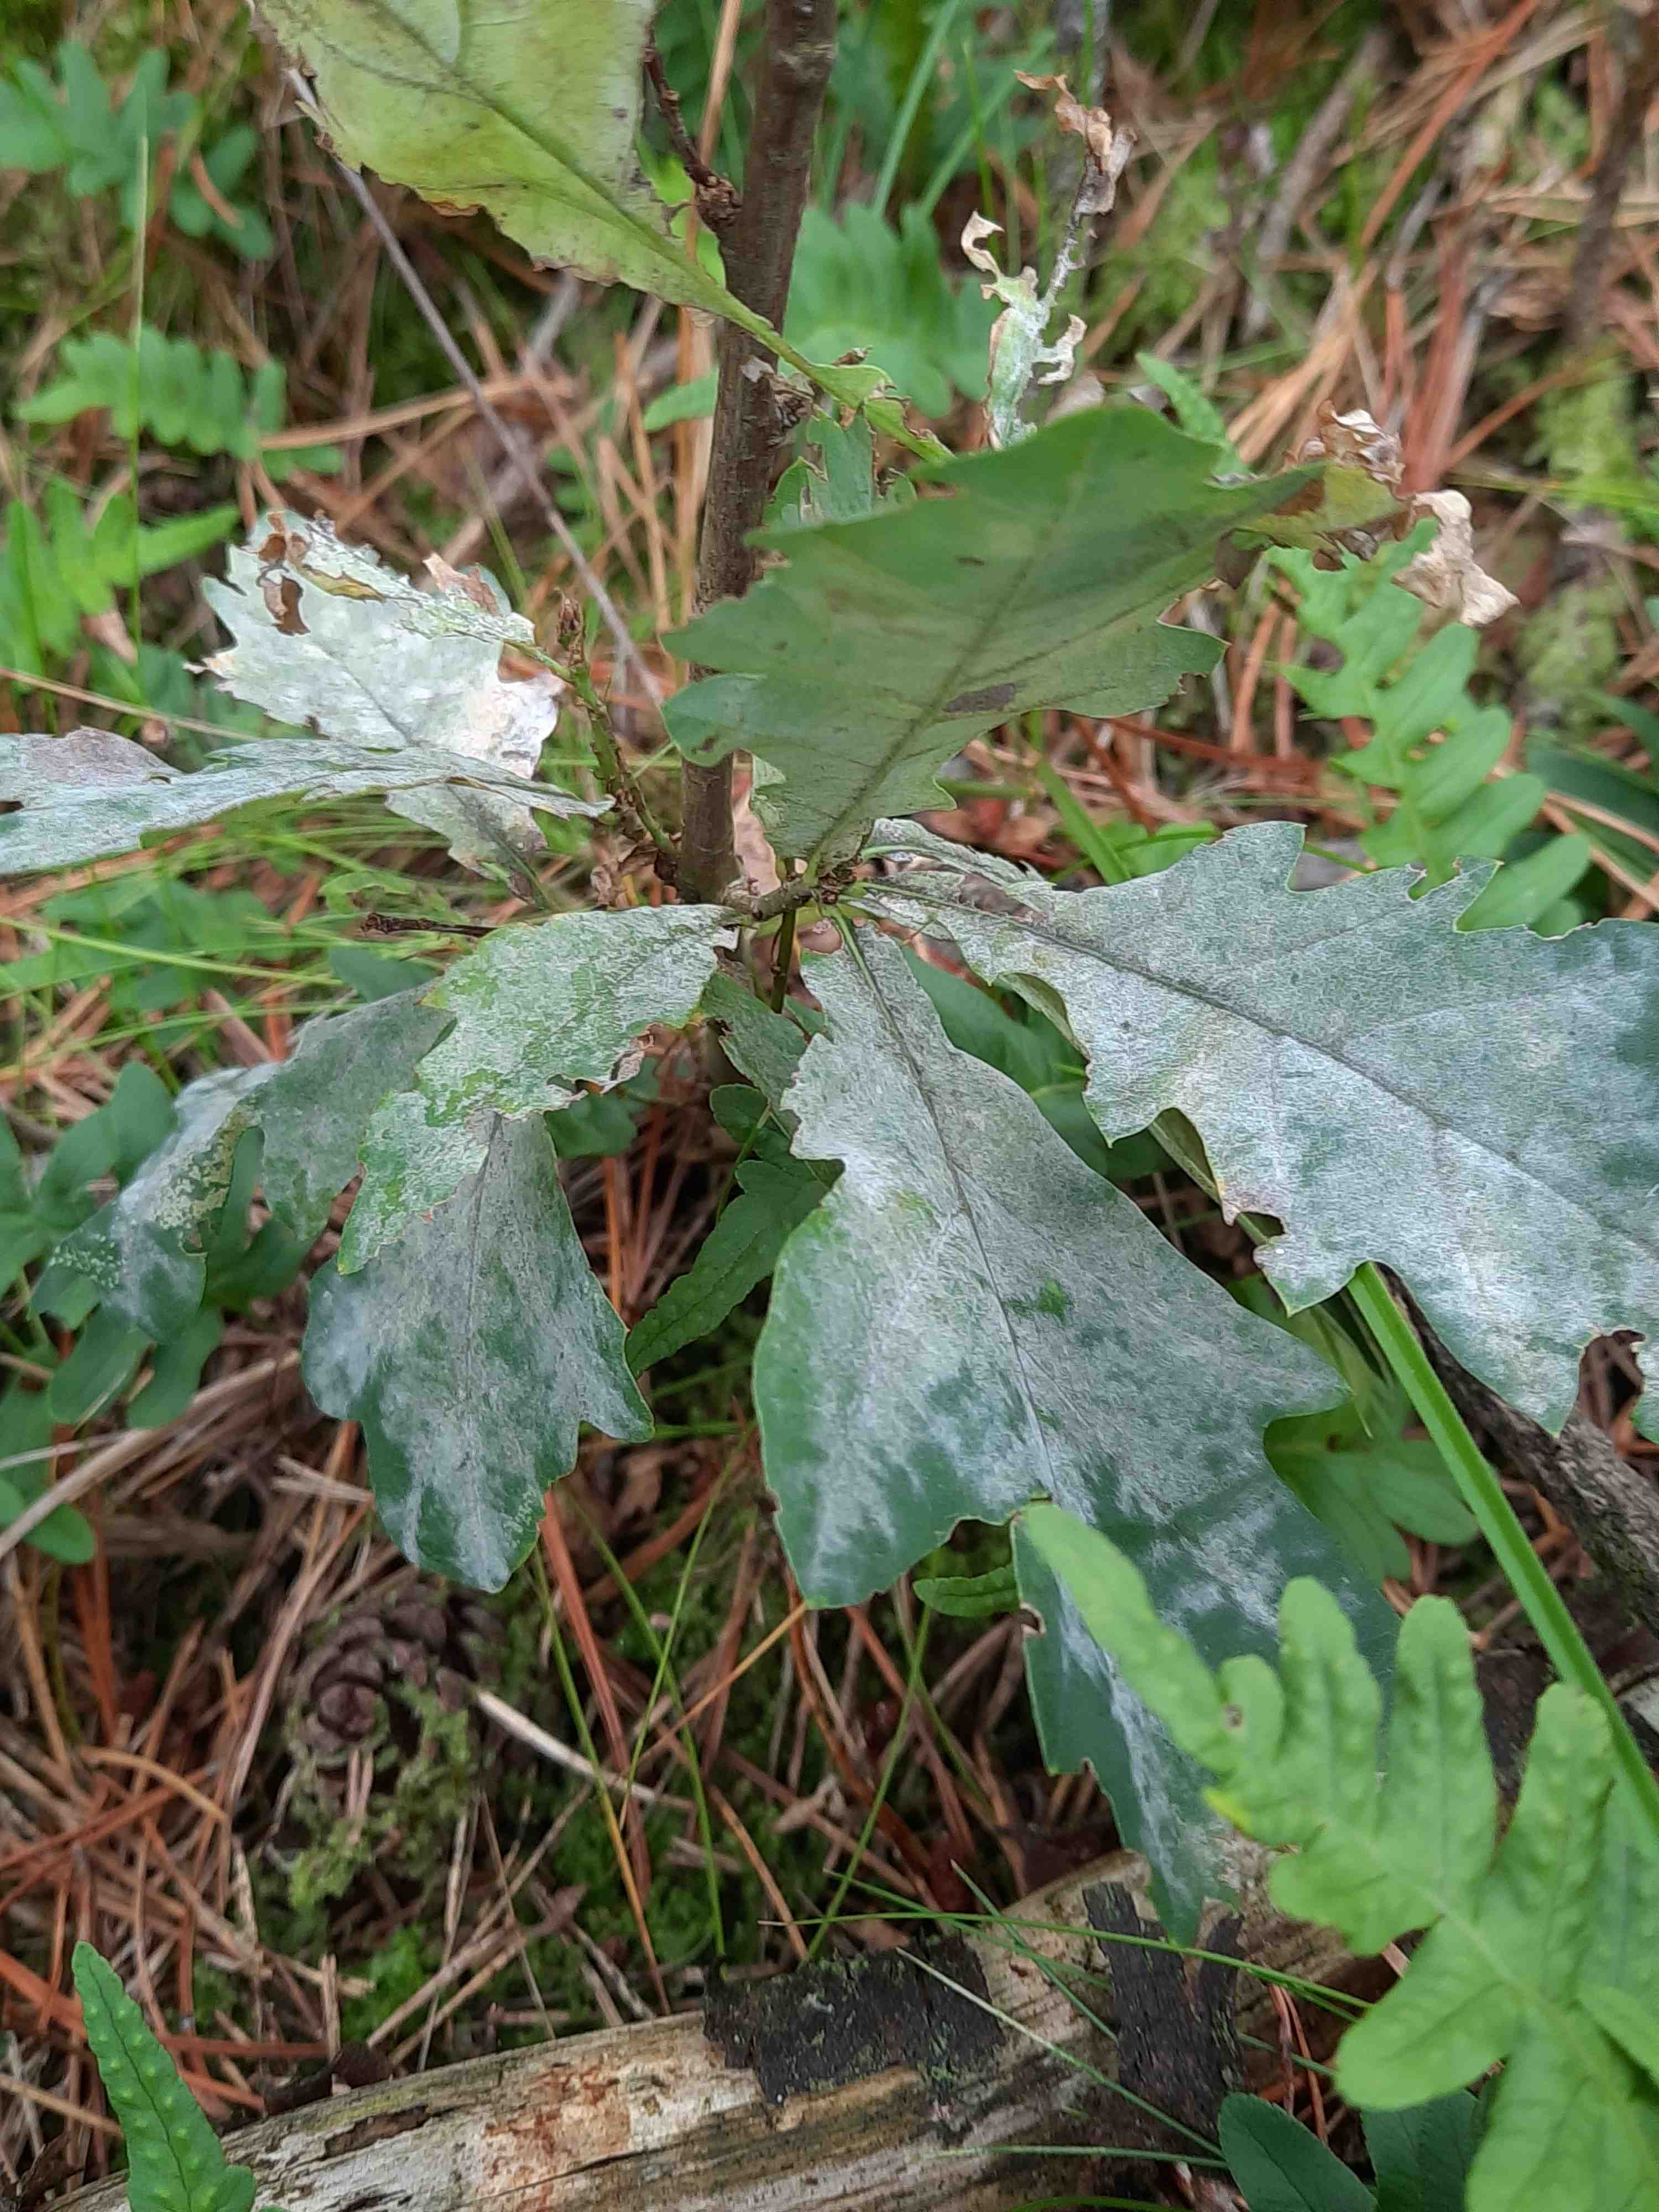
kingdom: Fungi
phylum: Ascomycota
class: Leotiomycetes
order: Helotiales
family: Erysiphaceae
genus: Erysiphe
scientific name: Erysiphe alphitoides
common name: ege-meldug
